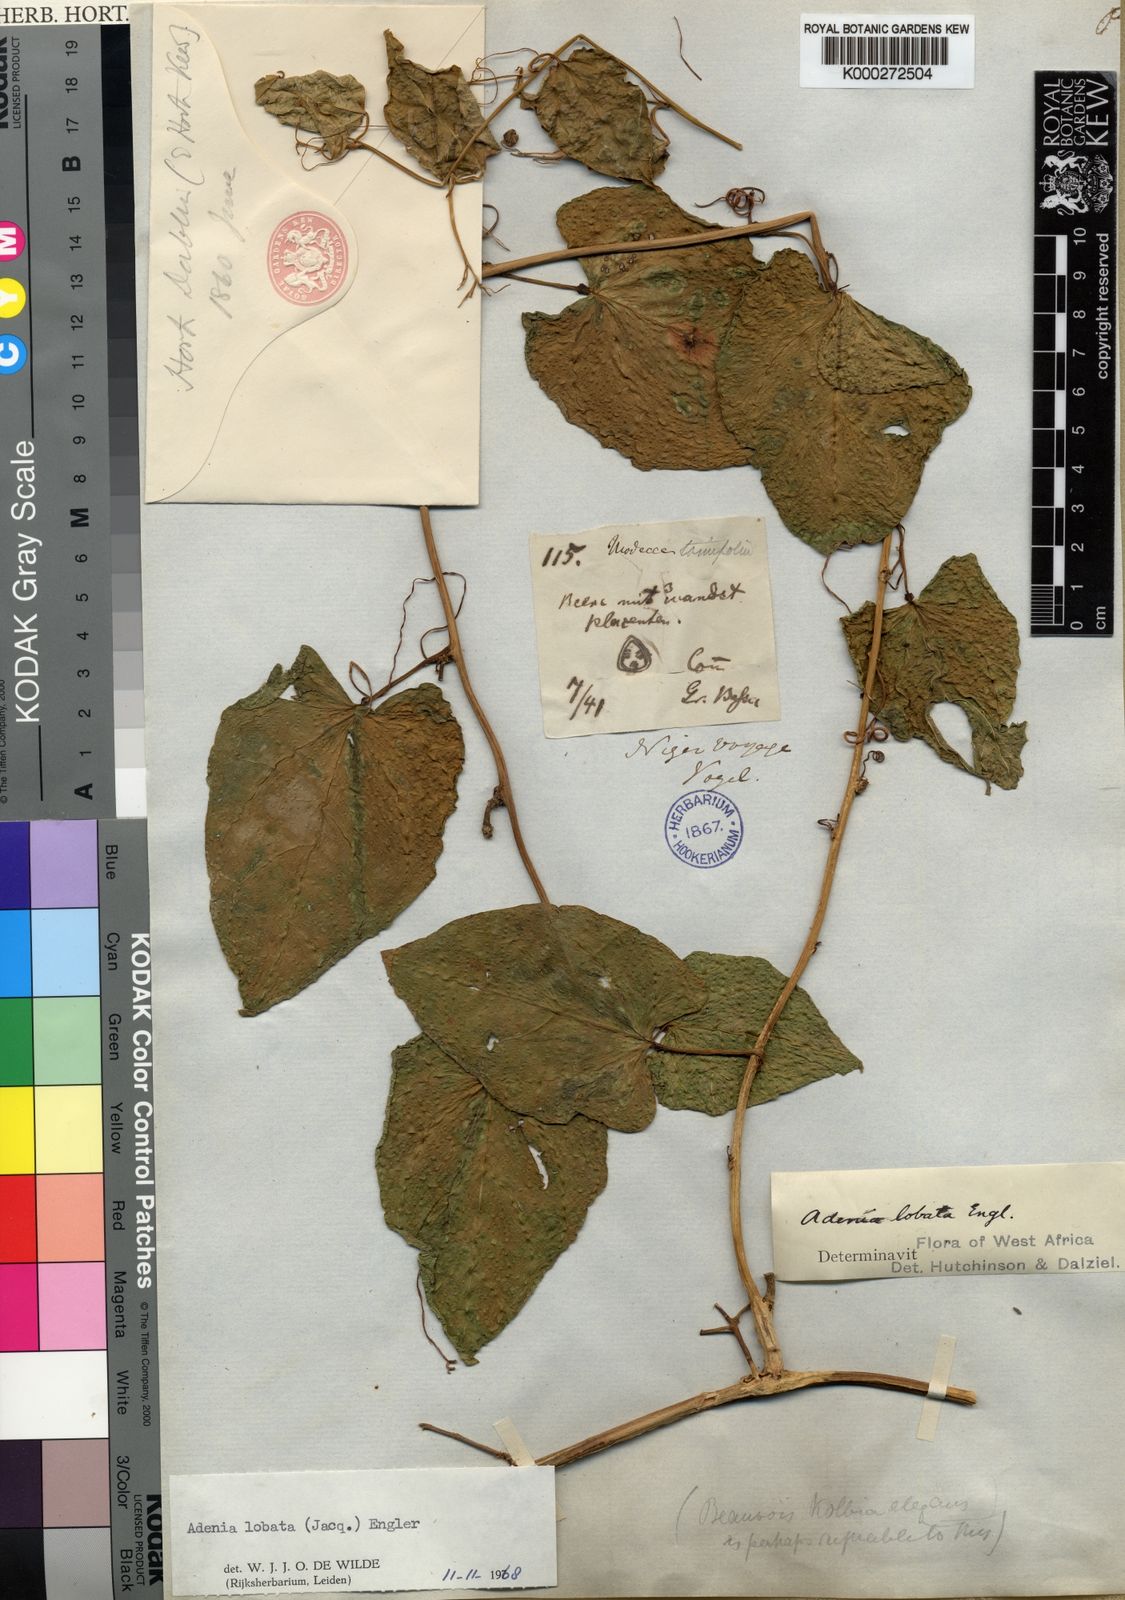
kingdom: Plantae
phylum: Tracheophyta
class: Magnoliopsida
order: Malpighiales
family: Passifloraceae
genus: Adenia
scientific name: Adenia lobata
